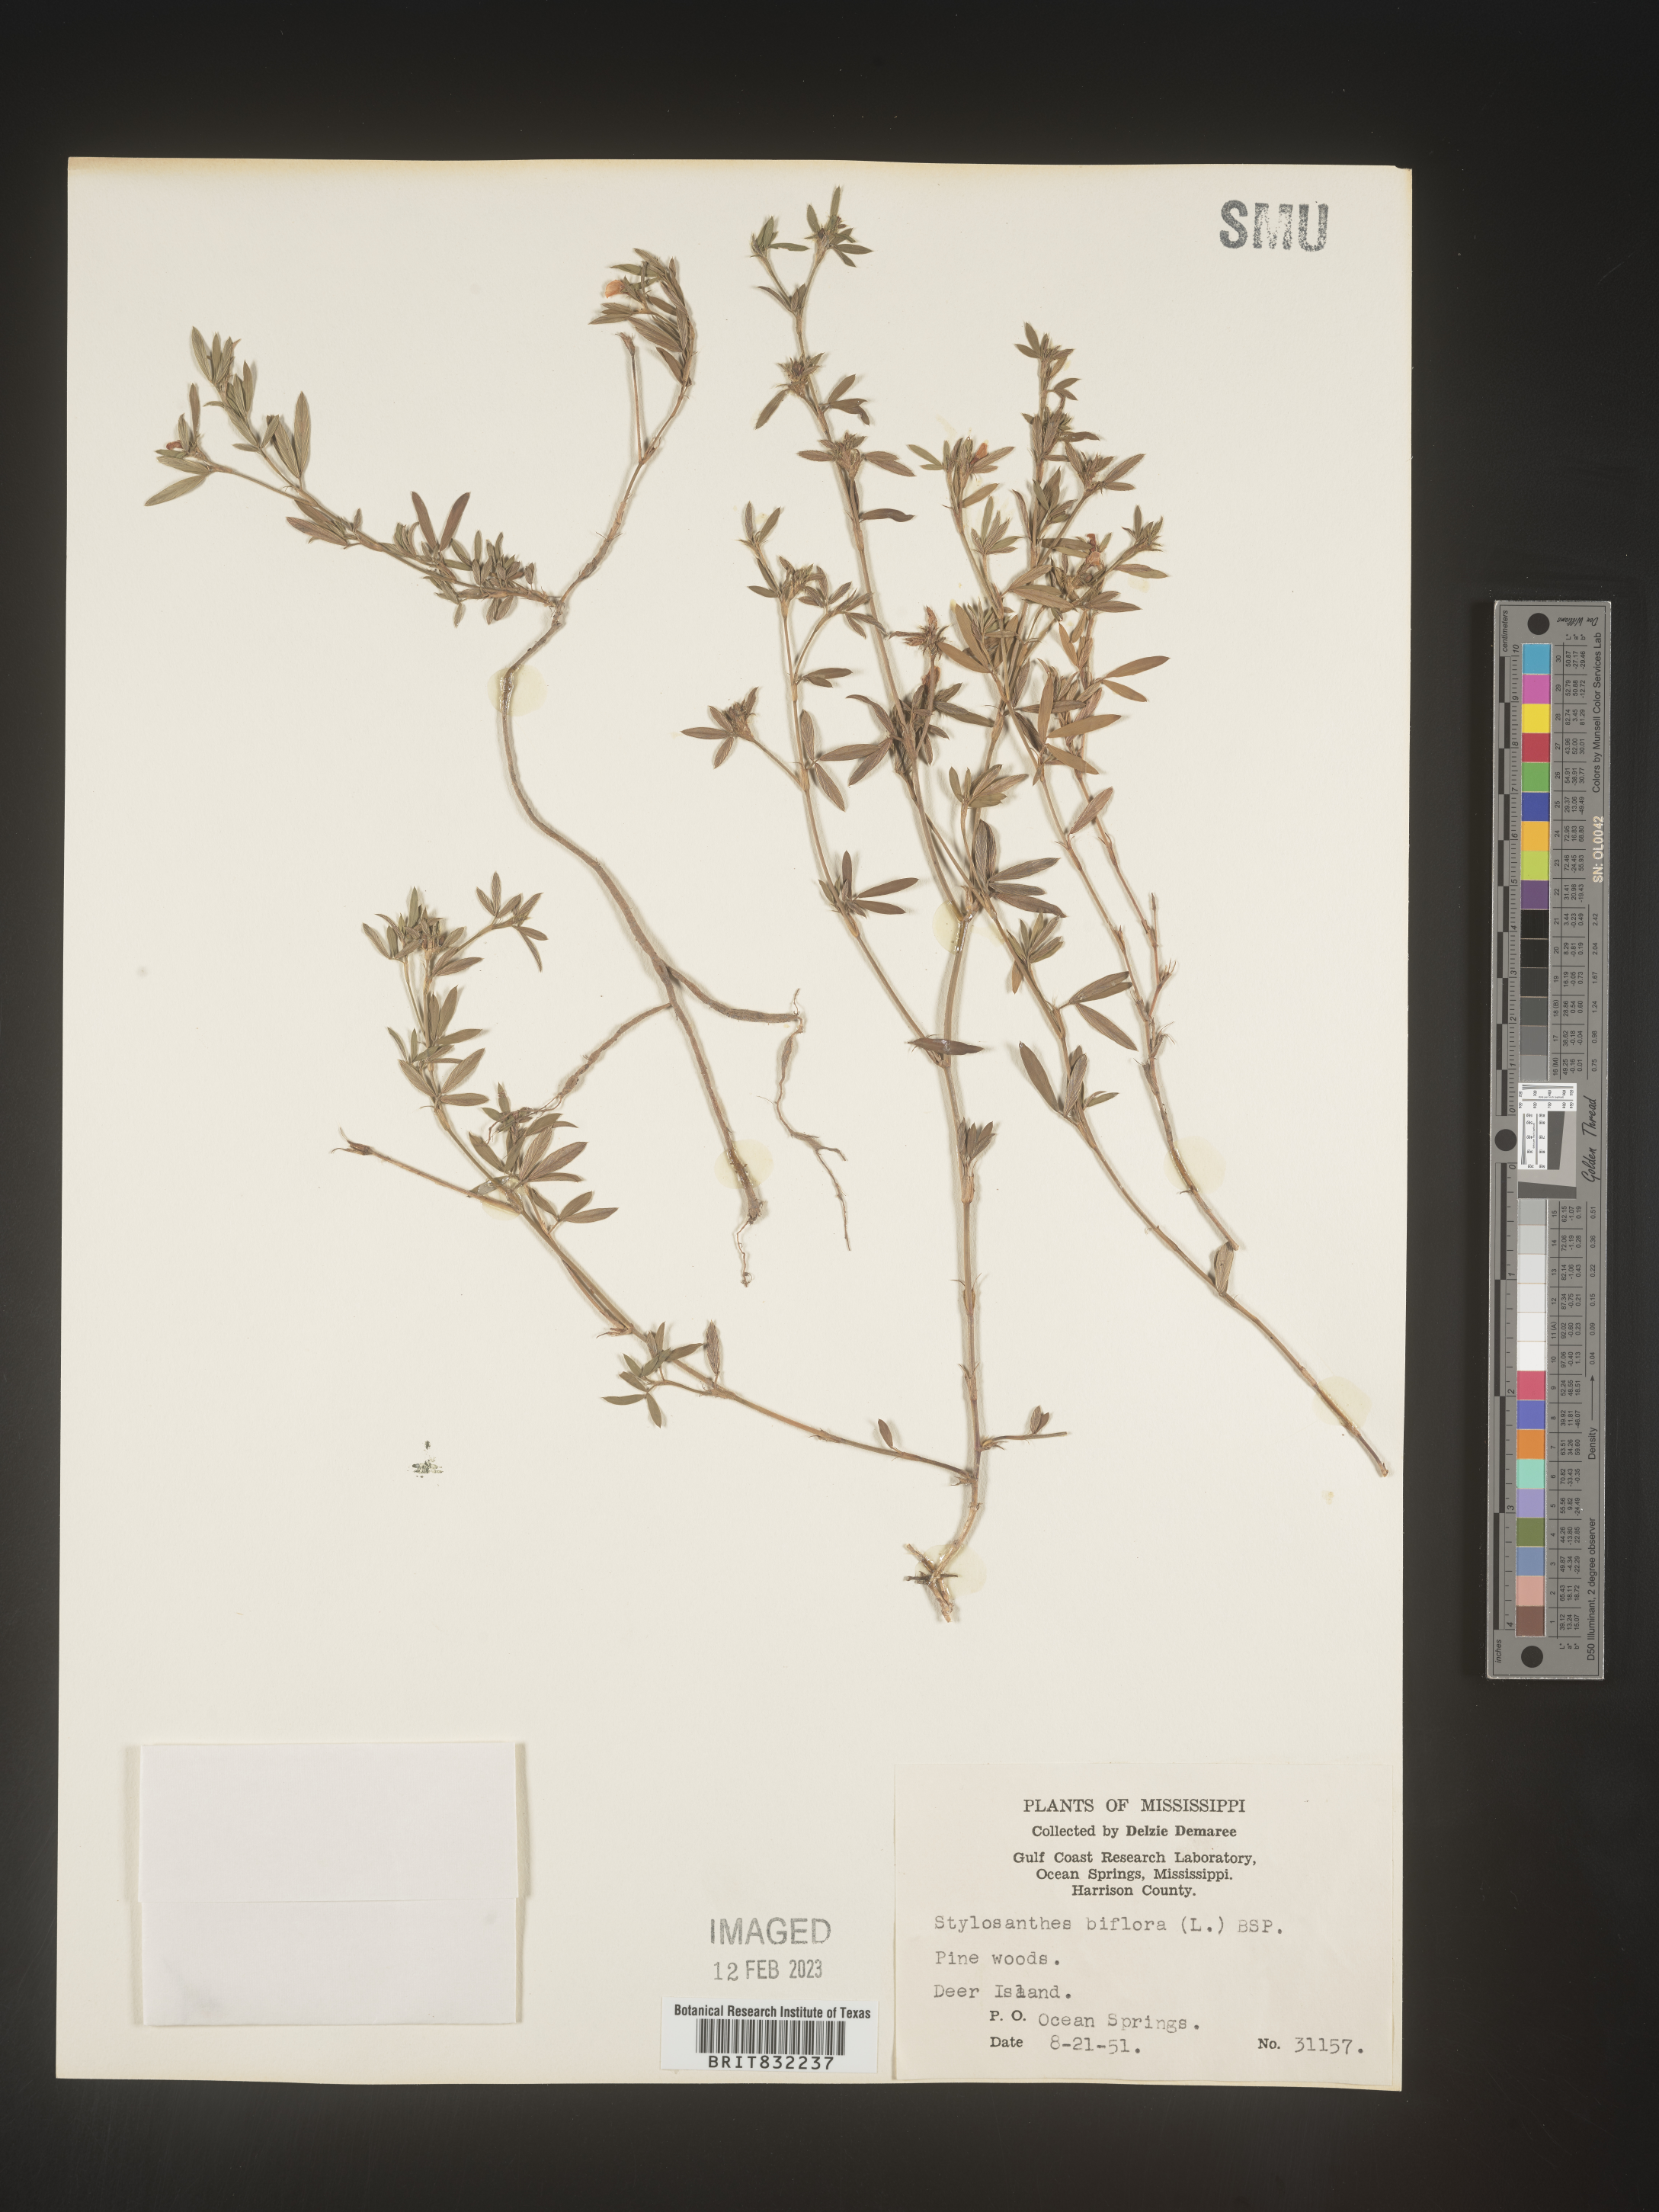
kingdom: Plantae
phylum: Tracheophyta
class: Magnoliopsida
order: Fabales
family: Fabaceae
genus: Stylosanthes
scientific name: Stylosanthes biflora
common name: Two-flower pencil-flower
